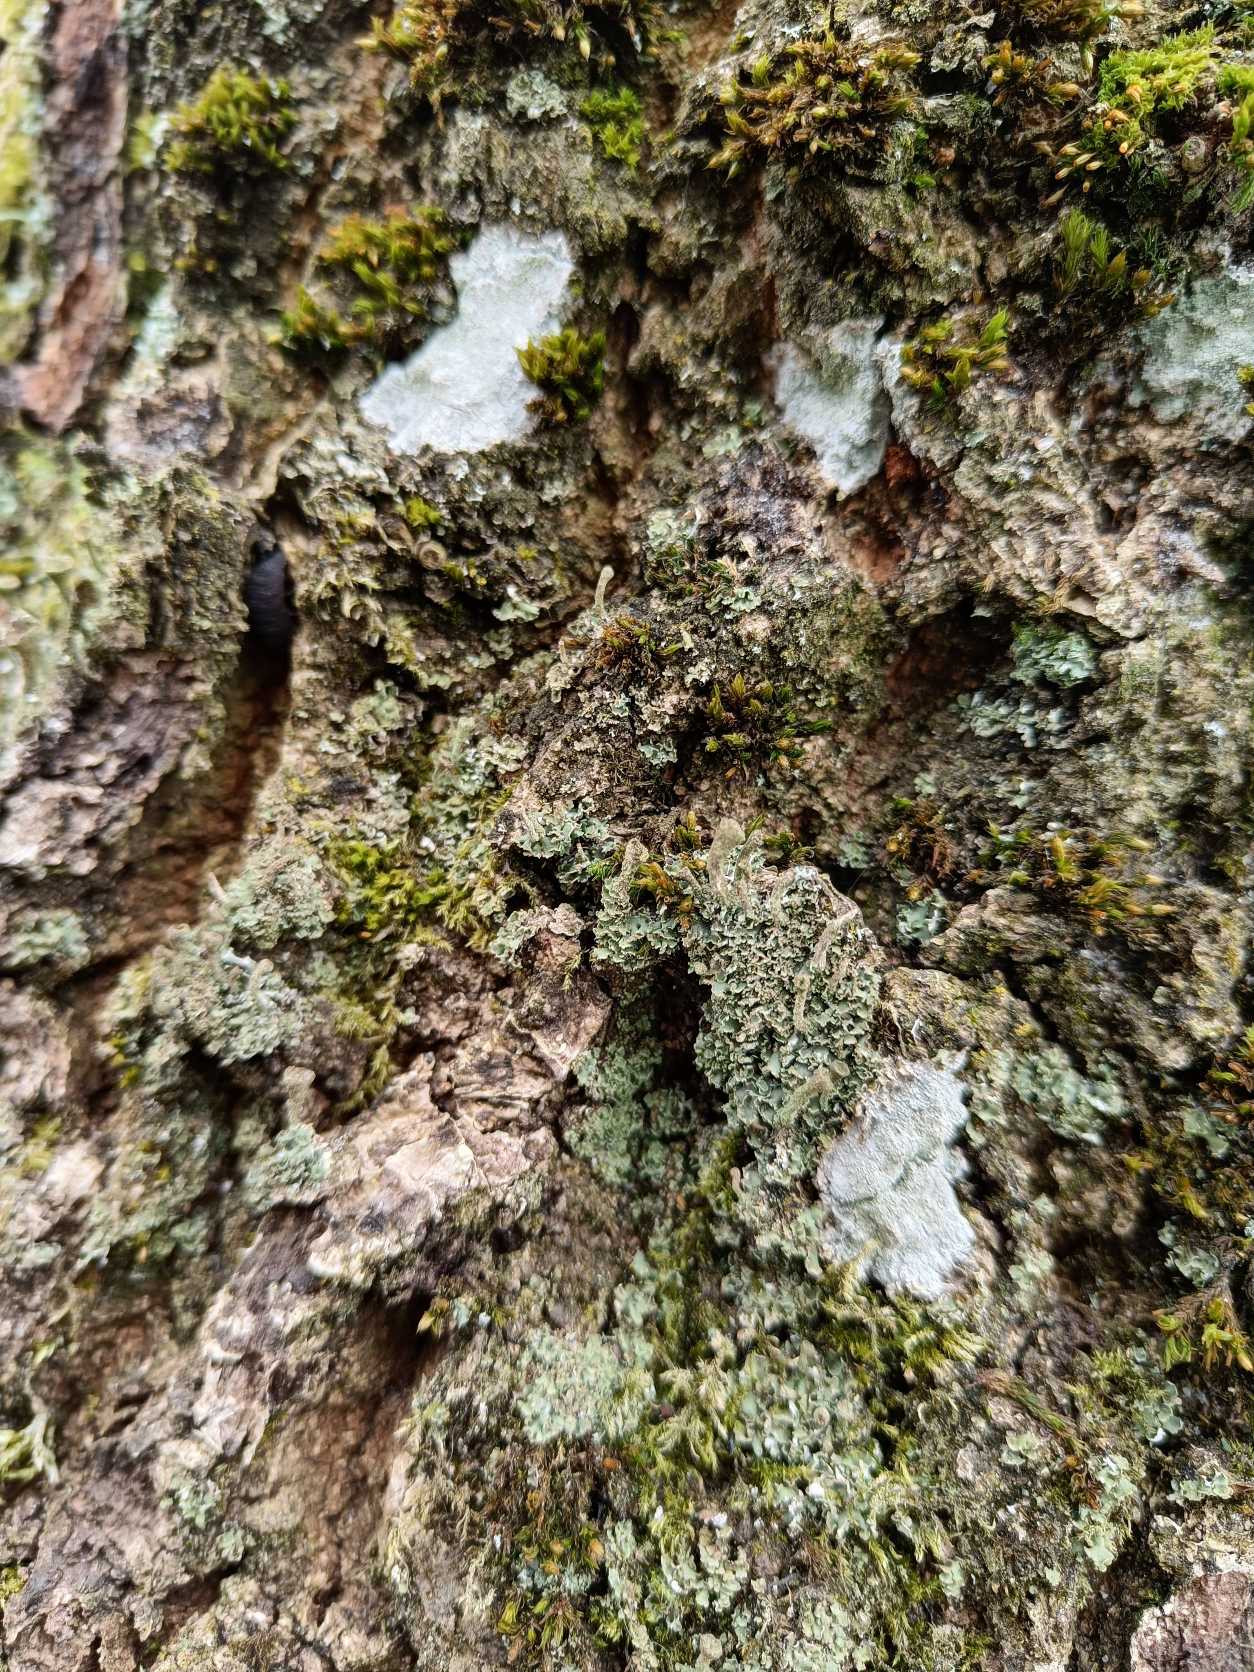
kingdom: Fungi
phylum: Ascomycota
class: Lecanoromycetes
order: Lecanorales
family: Cladoniaceae
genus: Cladonia
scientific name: Cladonia
